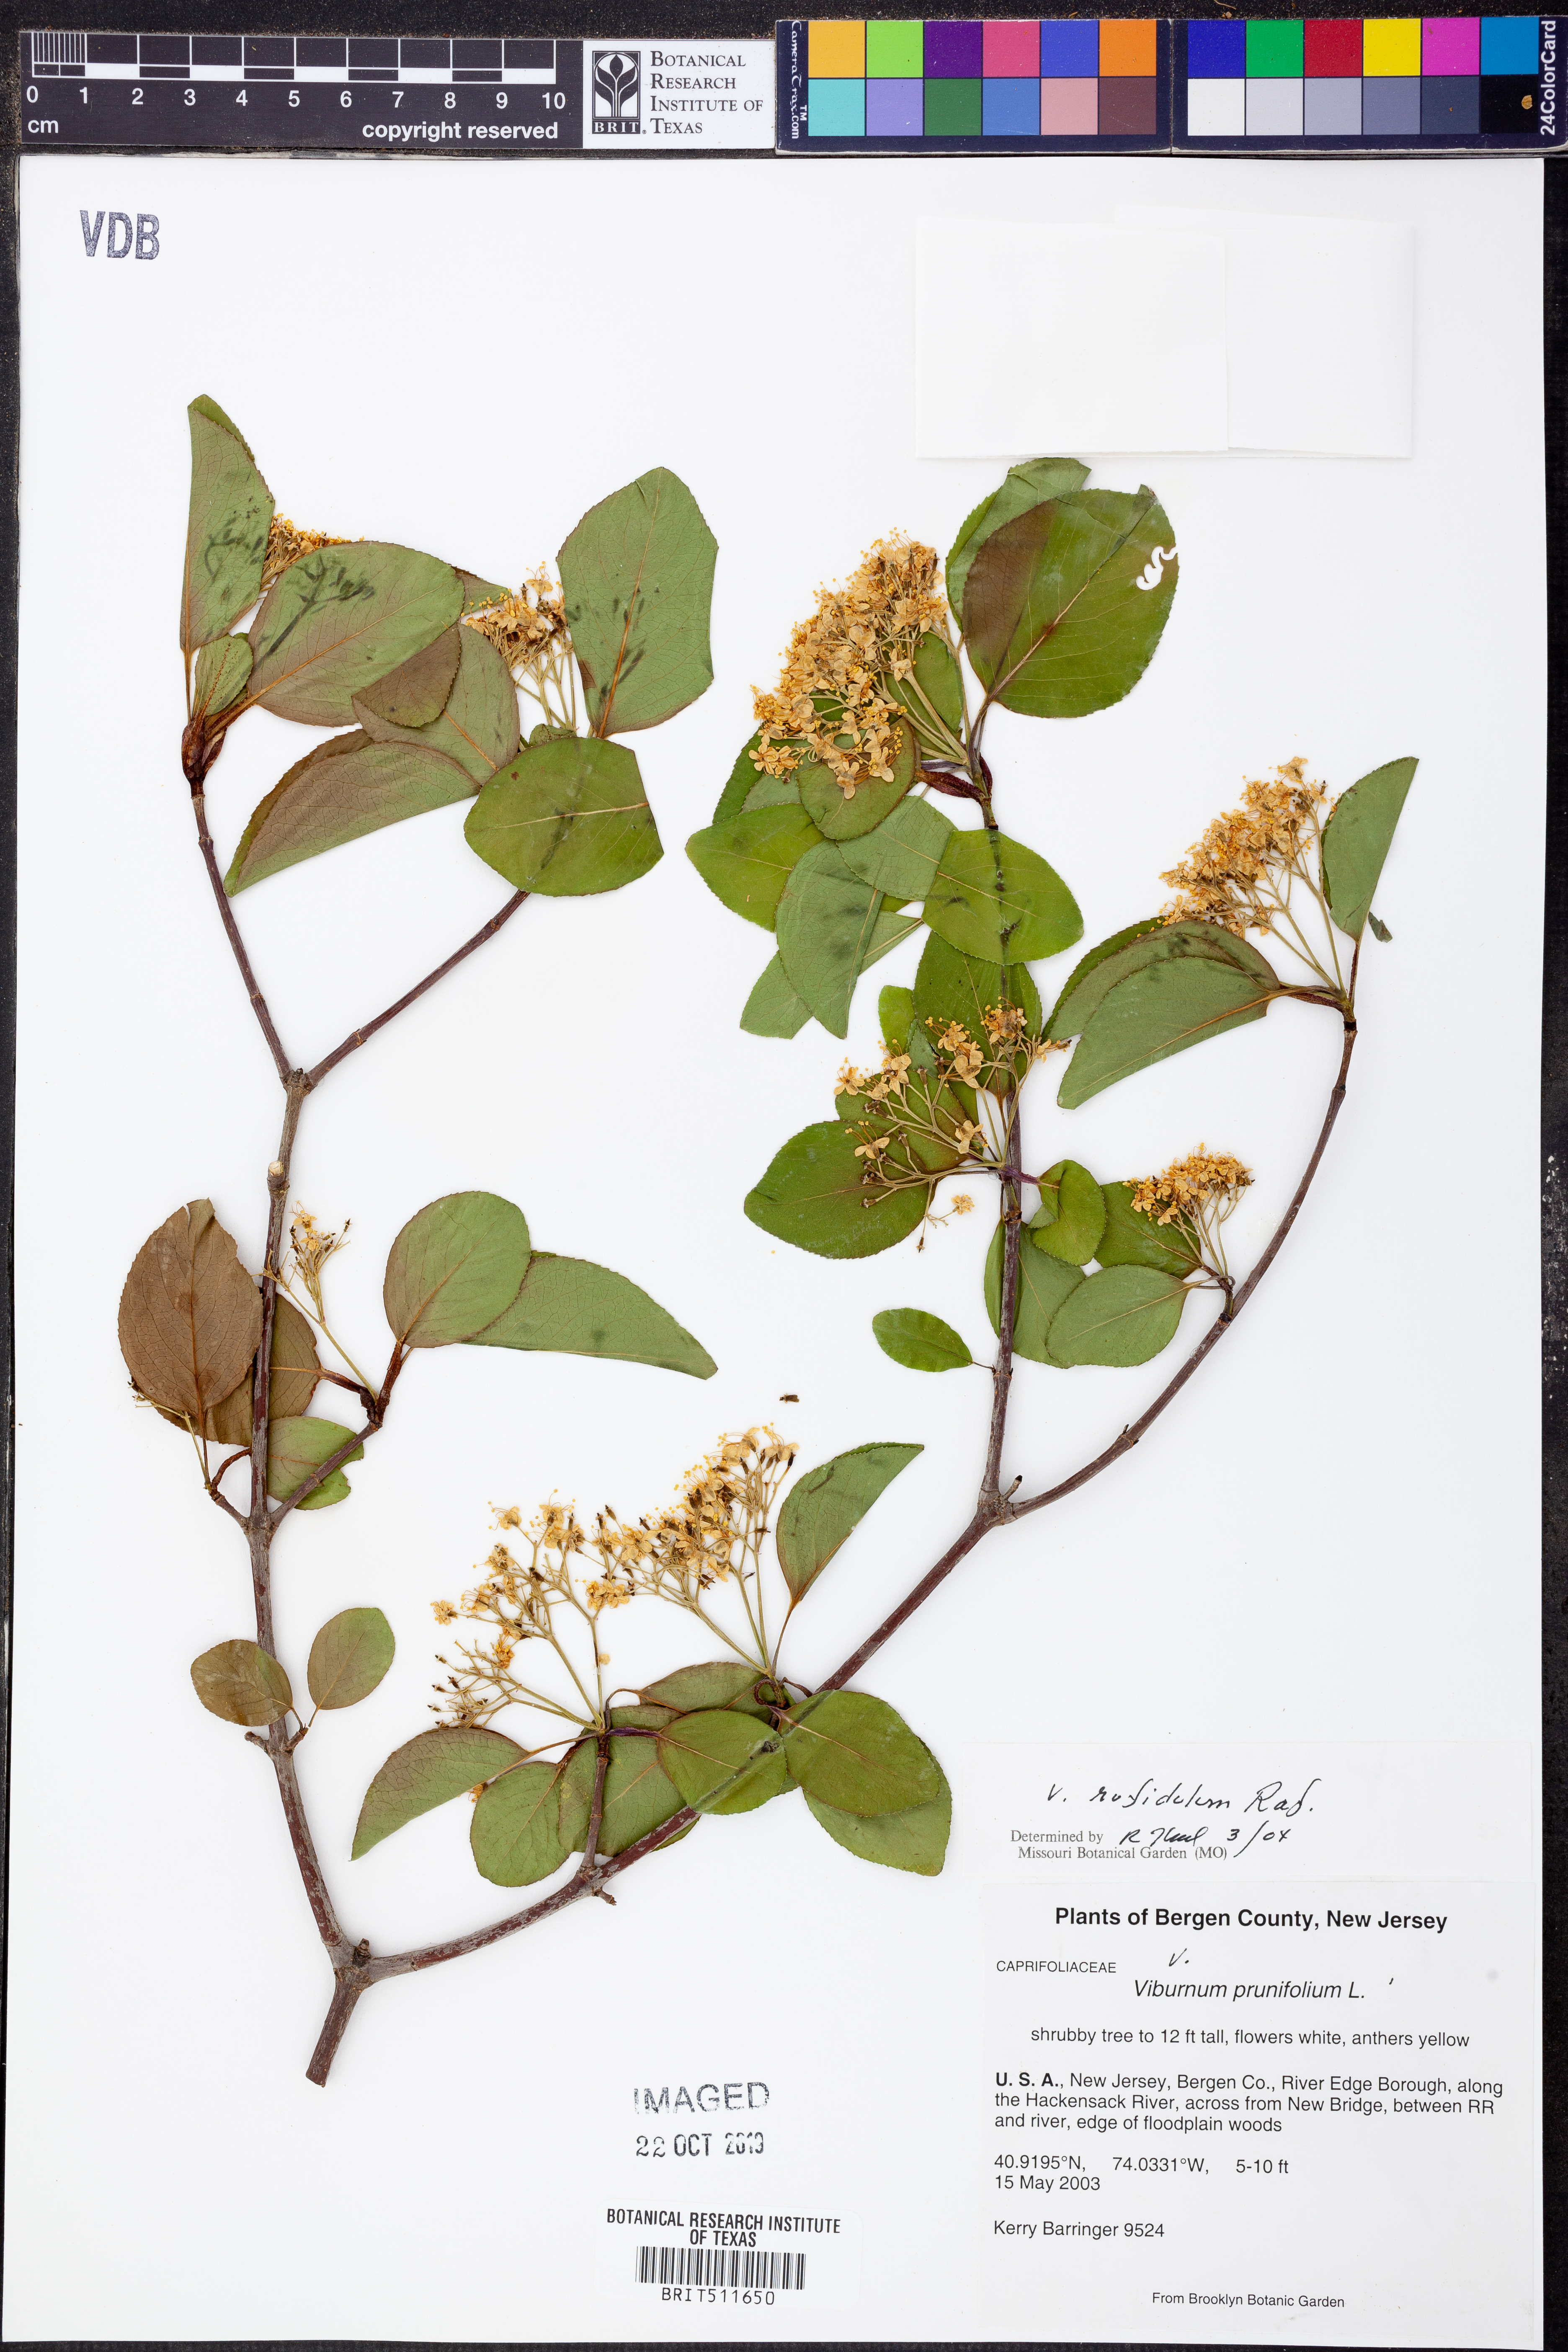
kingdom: Plantae
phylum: Tracheophyta
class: Magnoliopsida
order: Dipsacales
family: Viburnaceae
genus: Viburnum
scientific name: Viburnum rufidulum
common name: Blue haw
